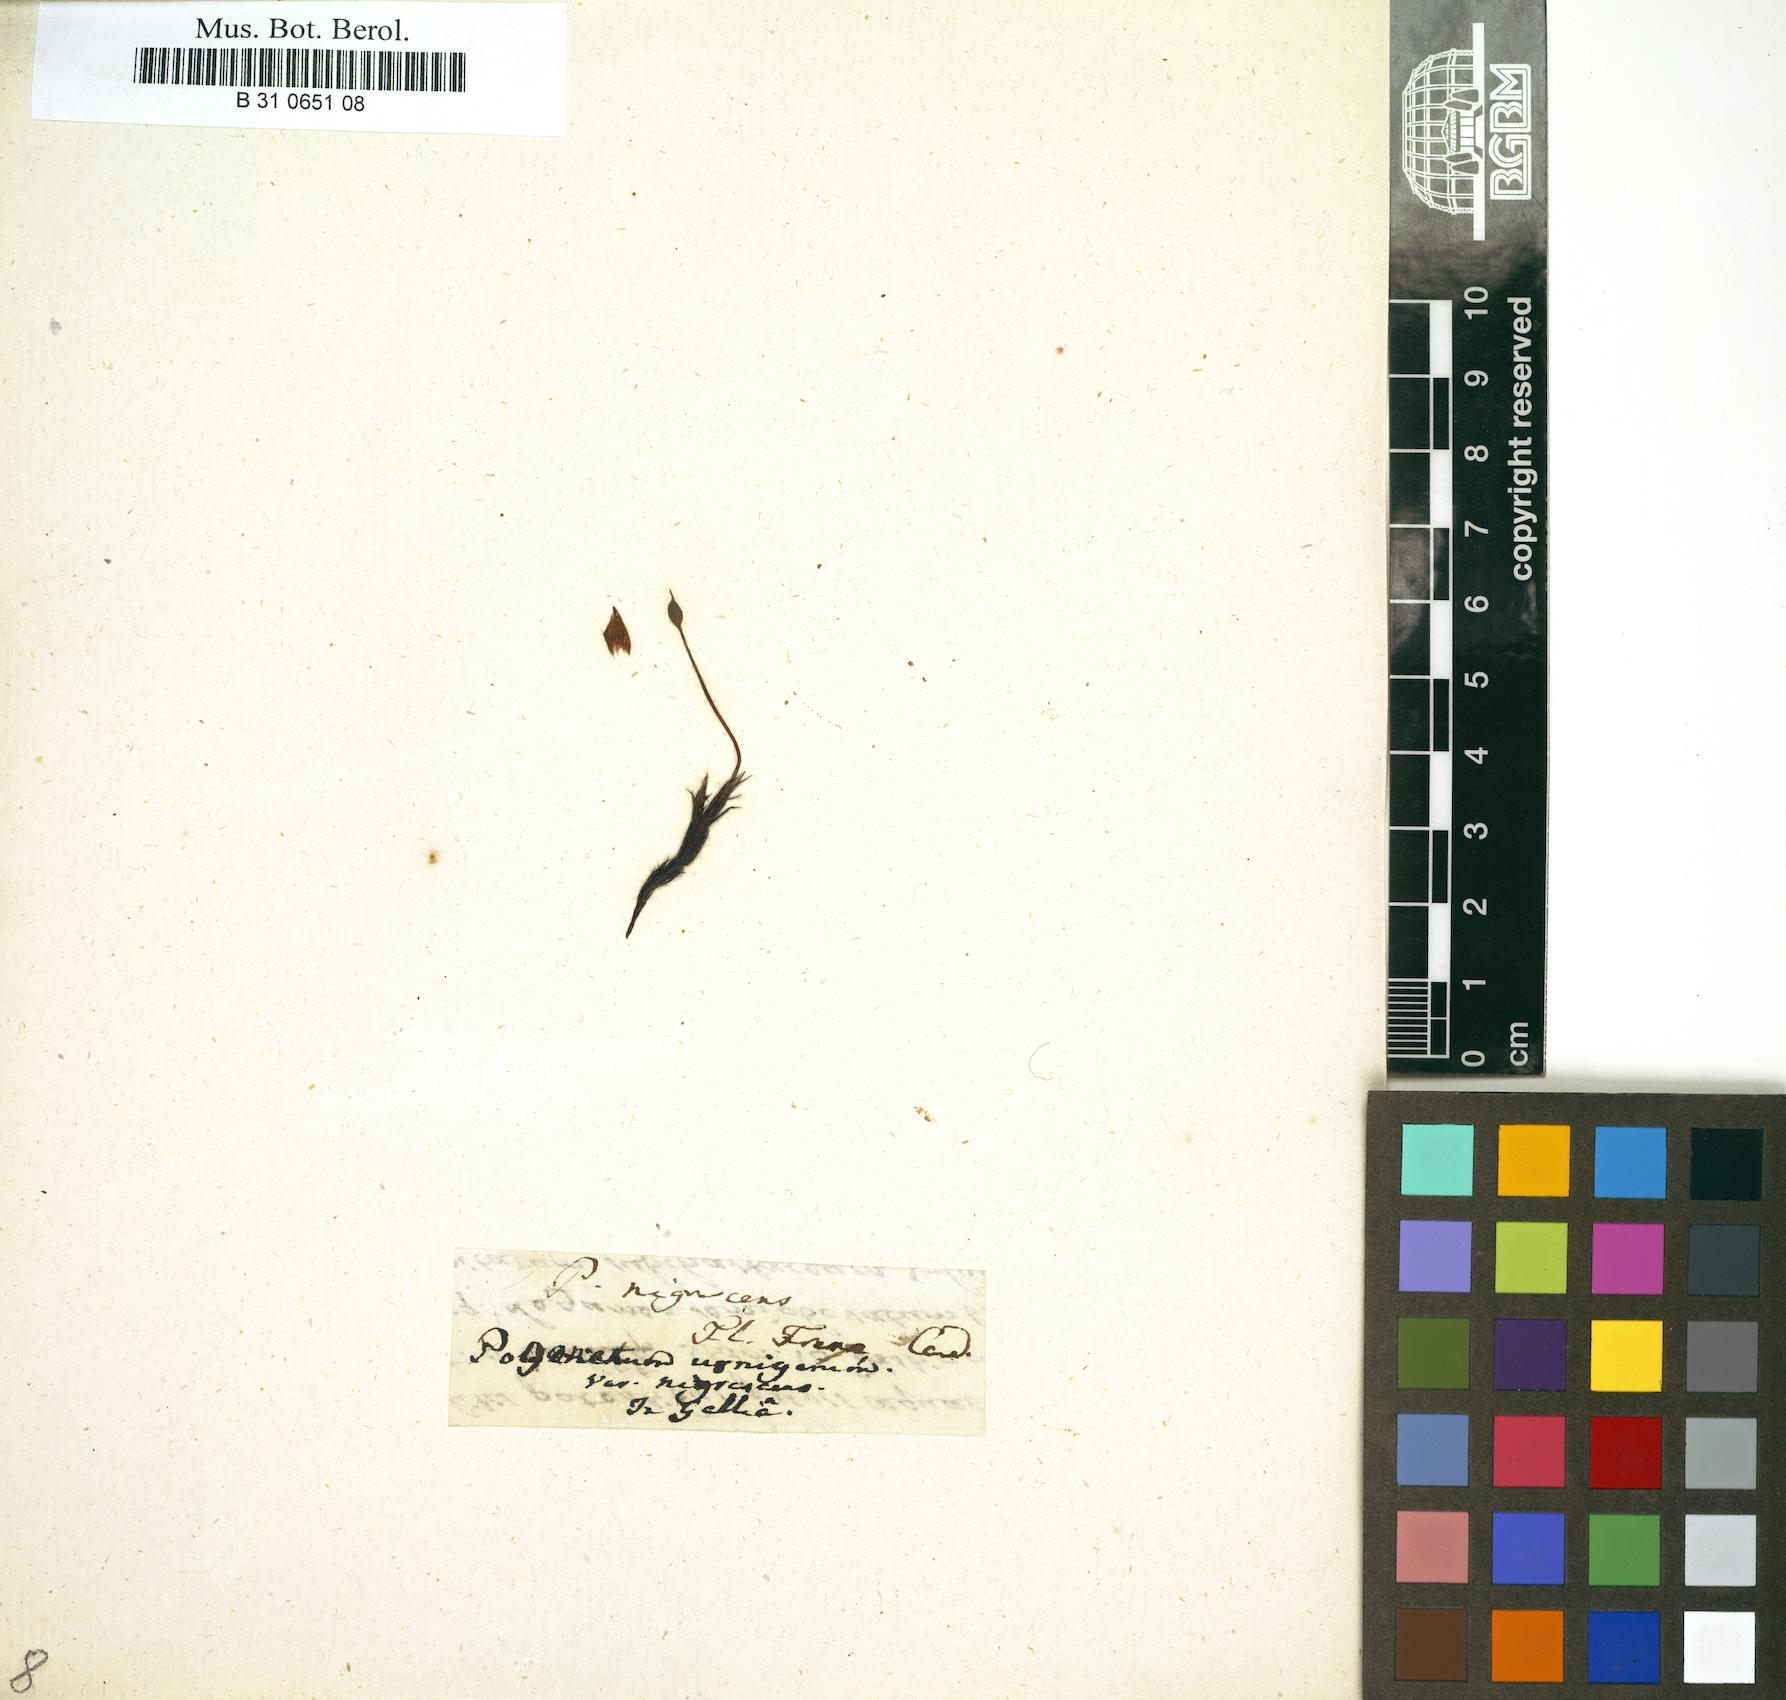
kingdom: Plantae
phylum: Bryophyta
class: Polytrichopsida
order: Polytrichales
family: Polytrichaceae
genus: Pogonatum
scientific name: Pogonatum
